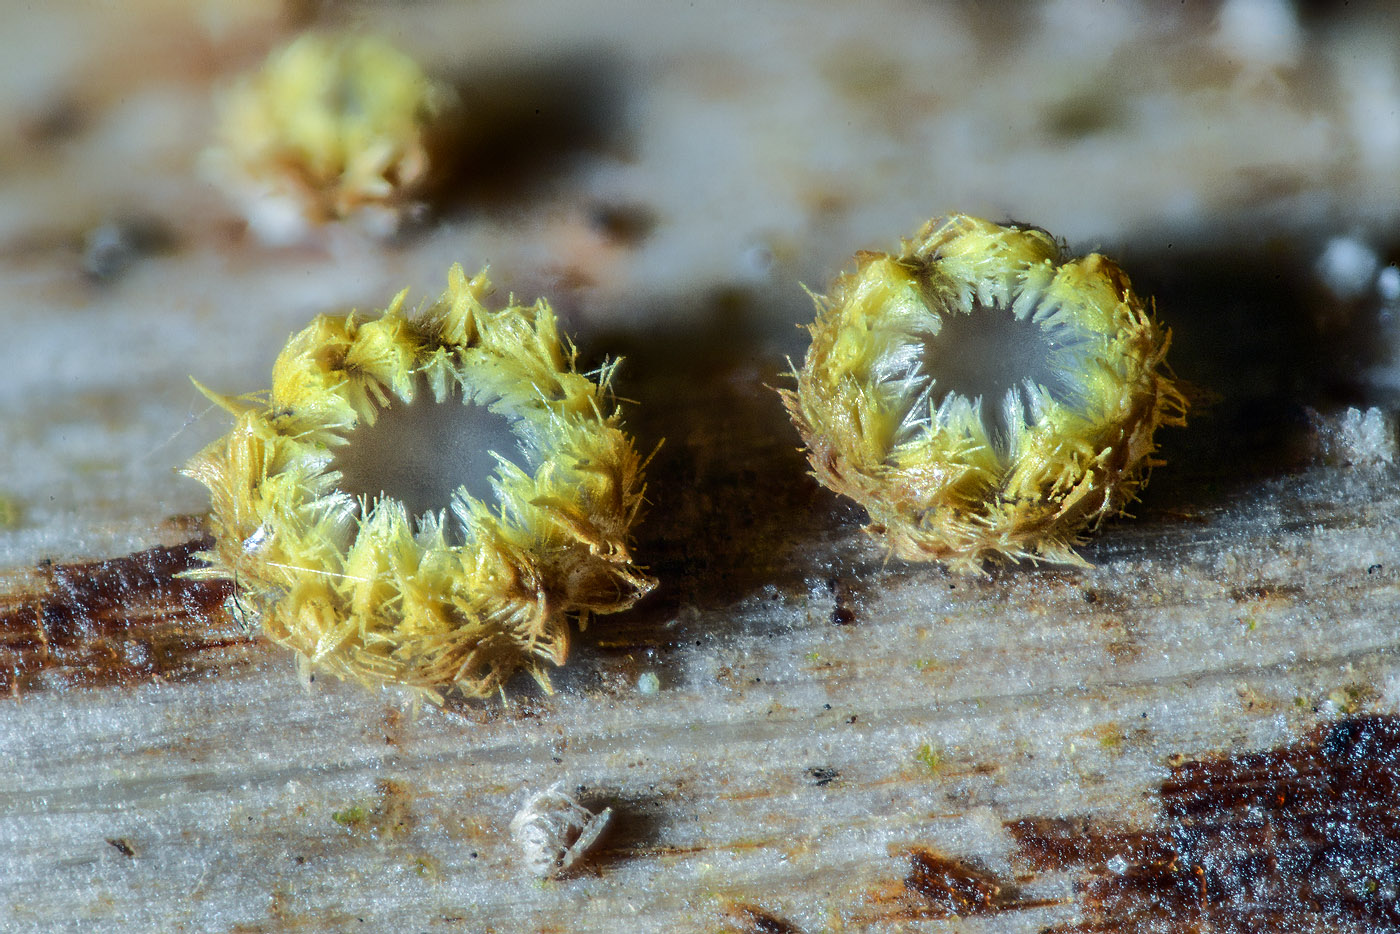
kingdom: Fungi
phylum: Ascomycota
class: Leotiomycetes
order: Helotiales
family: Lachnaceae
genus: Lachnum
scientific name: Lachnum mollissimum
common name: smuk frynseskive
